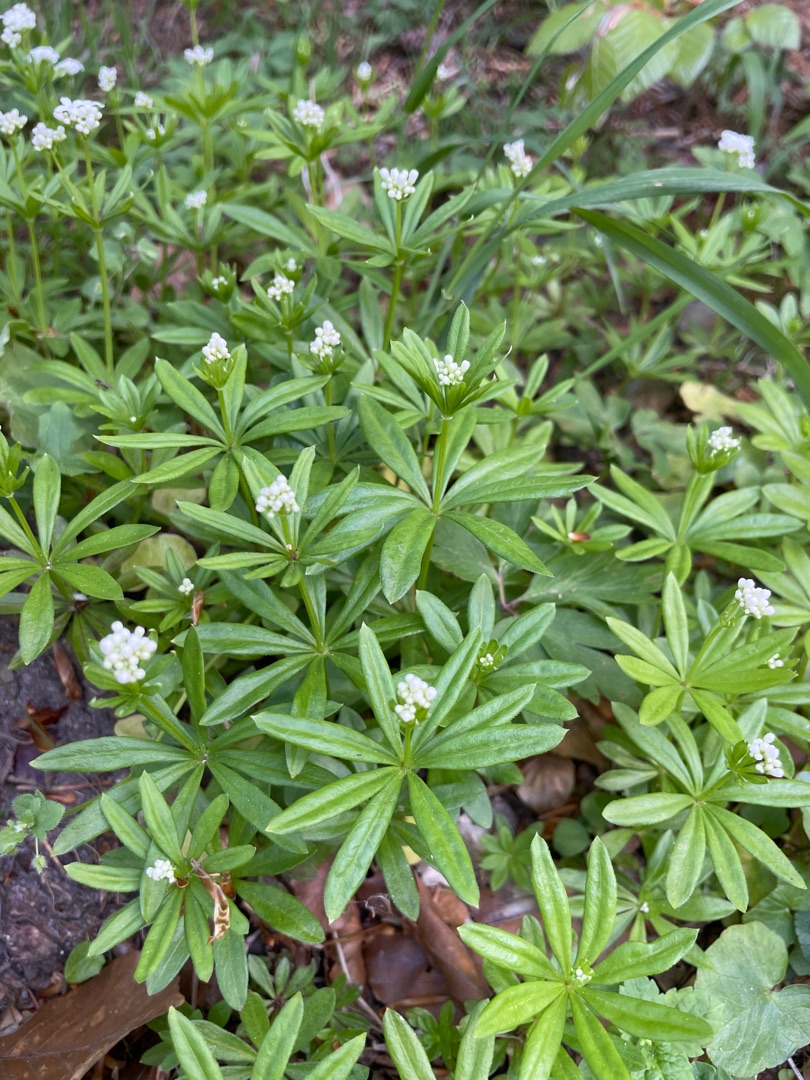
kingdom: Plantae
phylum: Tracheophyta
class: Magnoliopsida
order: Gentianales
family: Rubiaceae
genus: Galium
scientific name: Galium odoratum
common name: Skovmærke
